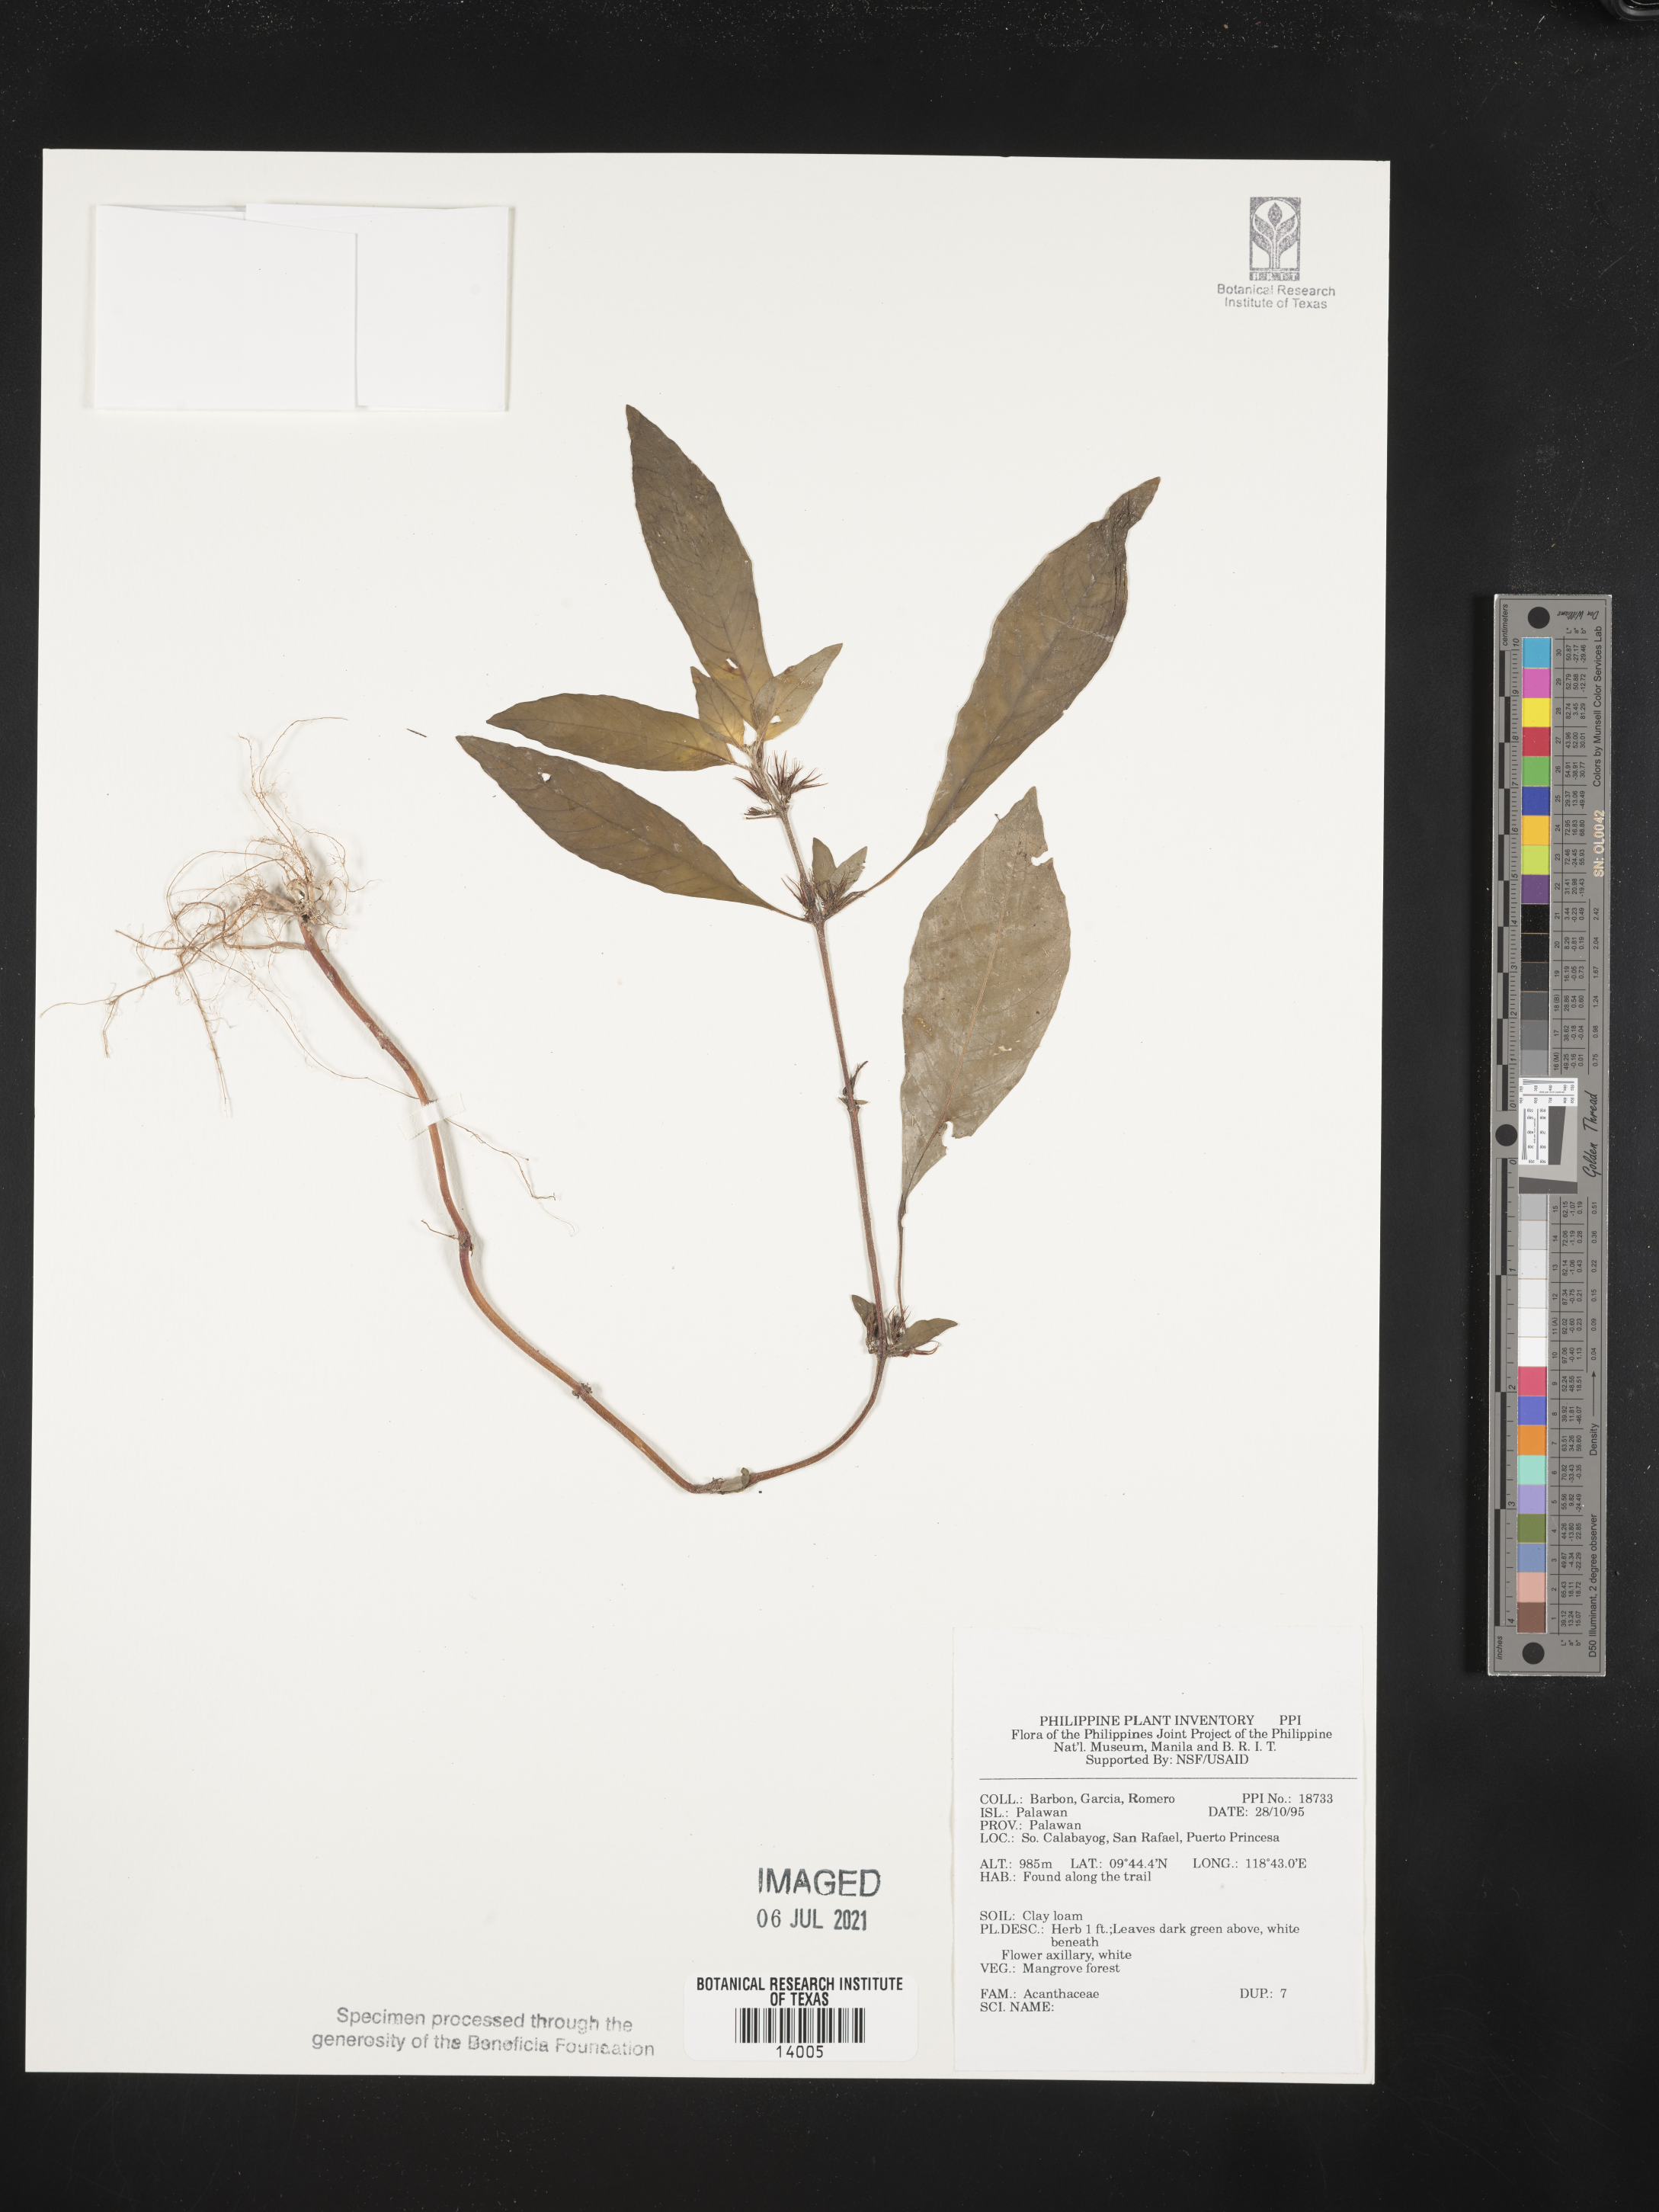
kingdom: Plantae
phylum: Tracheophyta
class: Magnoliopsida
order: Lamiales
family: Acanthaceae
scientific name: Acanthaceae
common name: Acanthaceae
